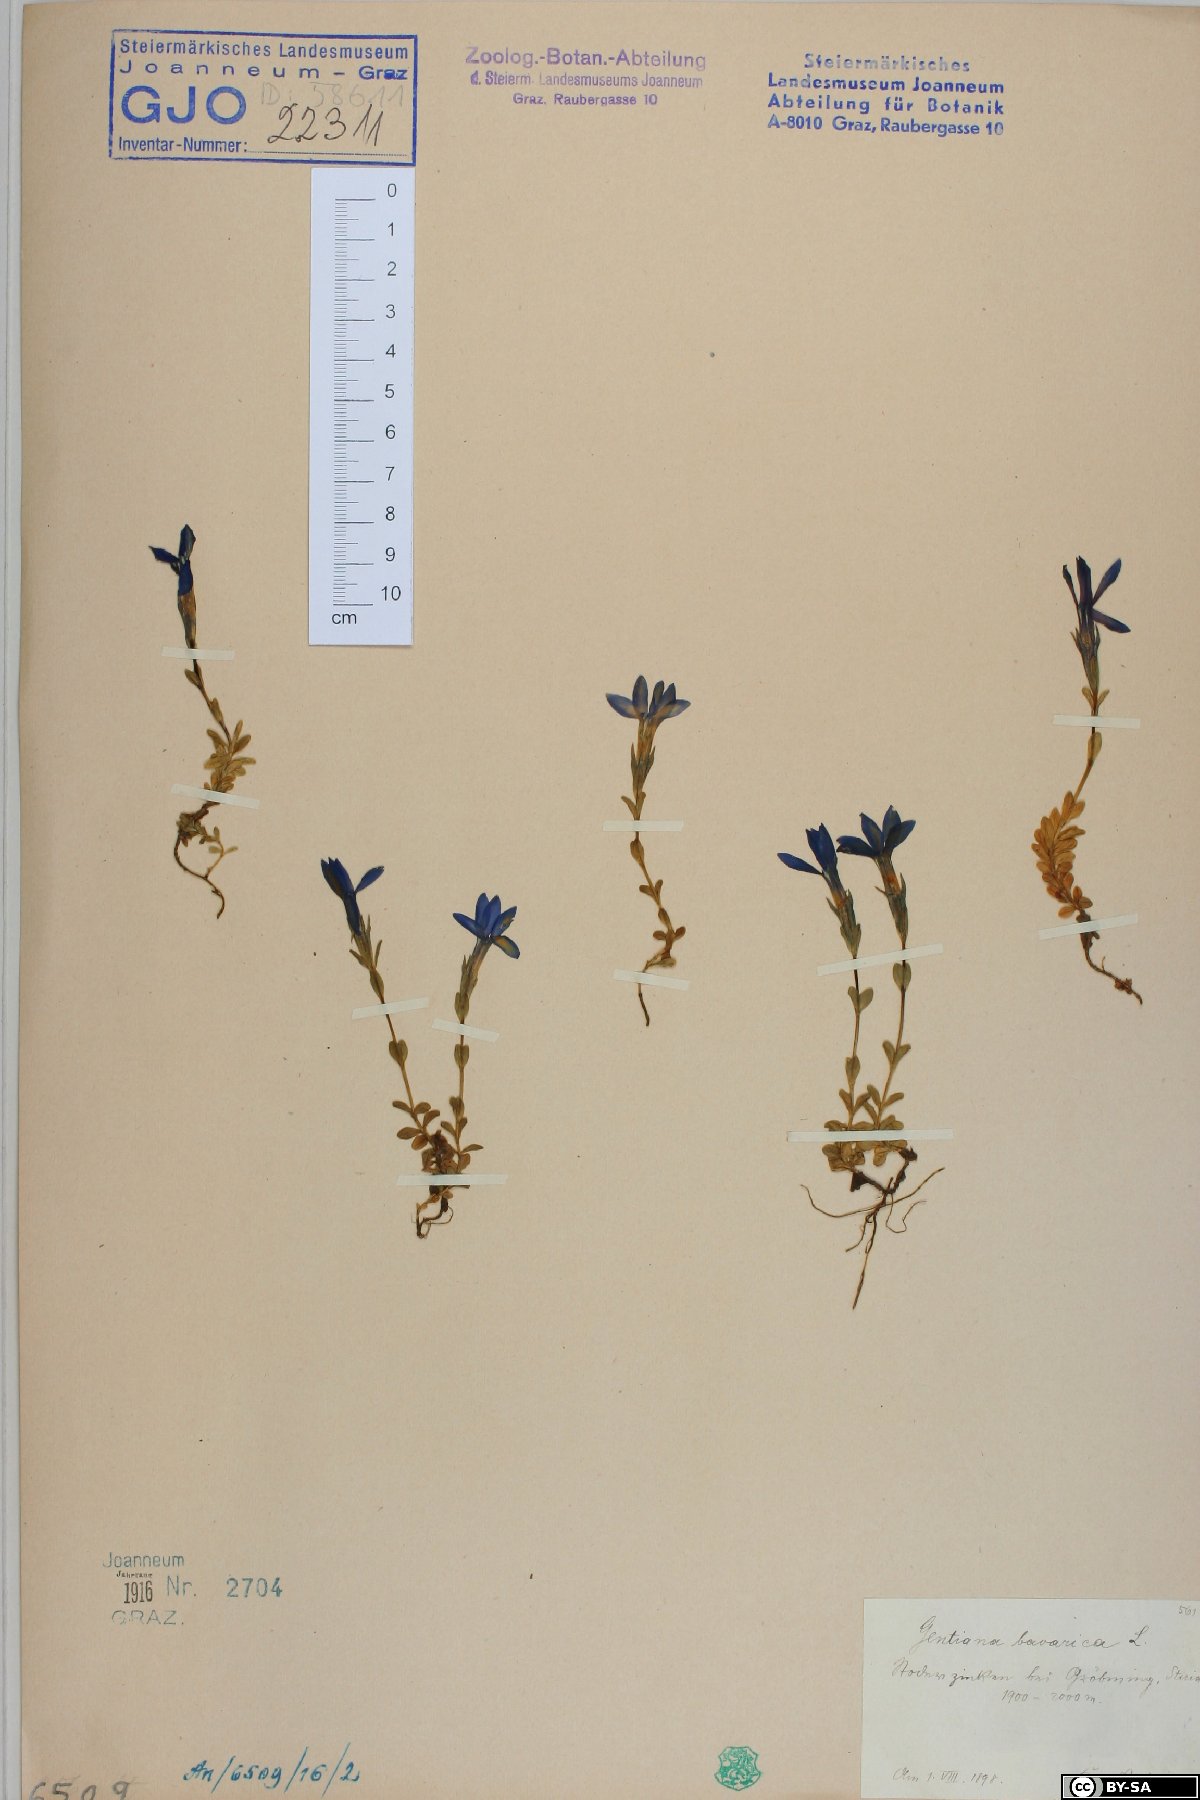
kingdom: Plantae
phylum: Tracheophyta
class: Magnoliopsida
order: Gentianales
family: Gentianaceae
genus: Gentiana
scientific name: Gentiana bavarica
